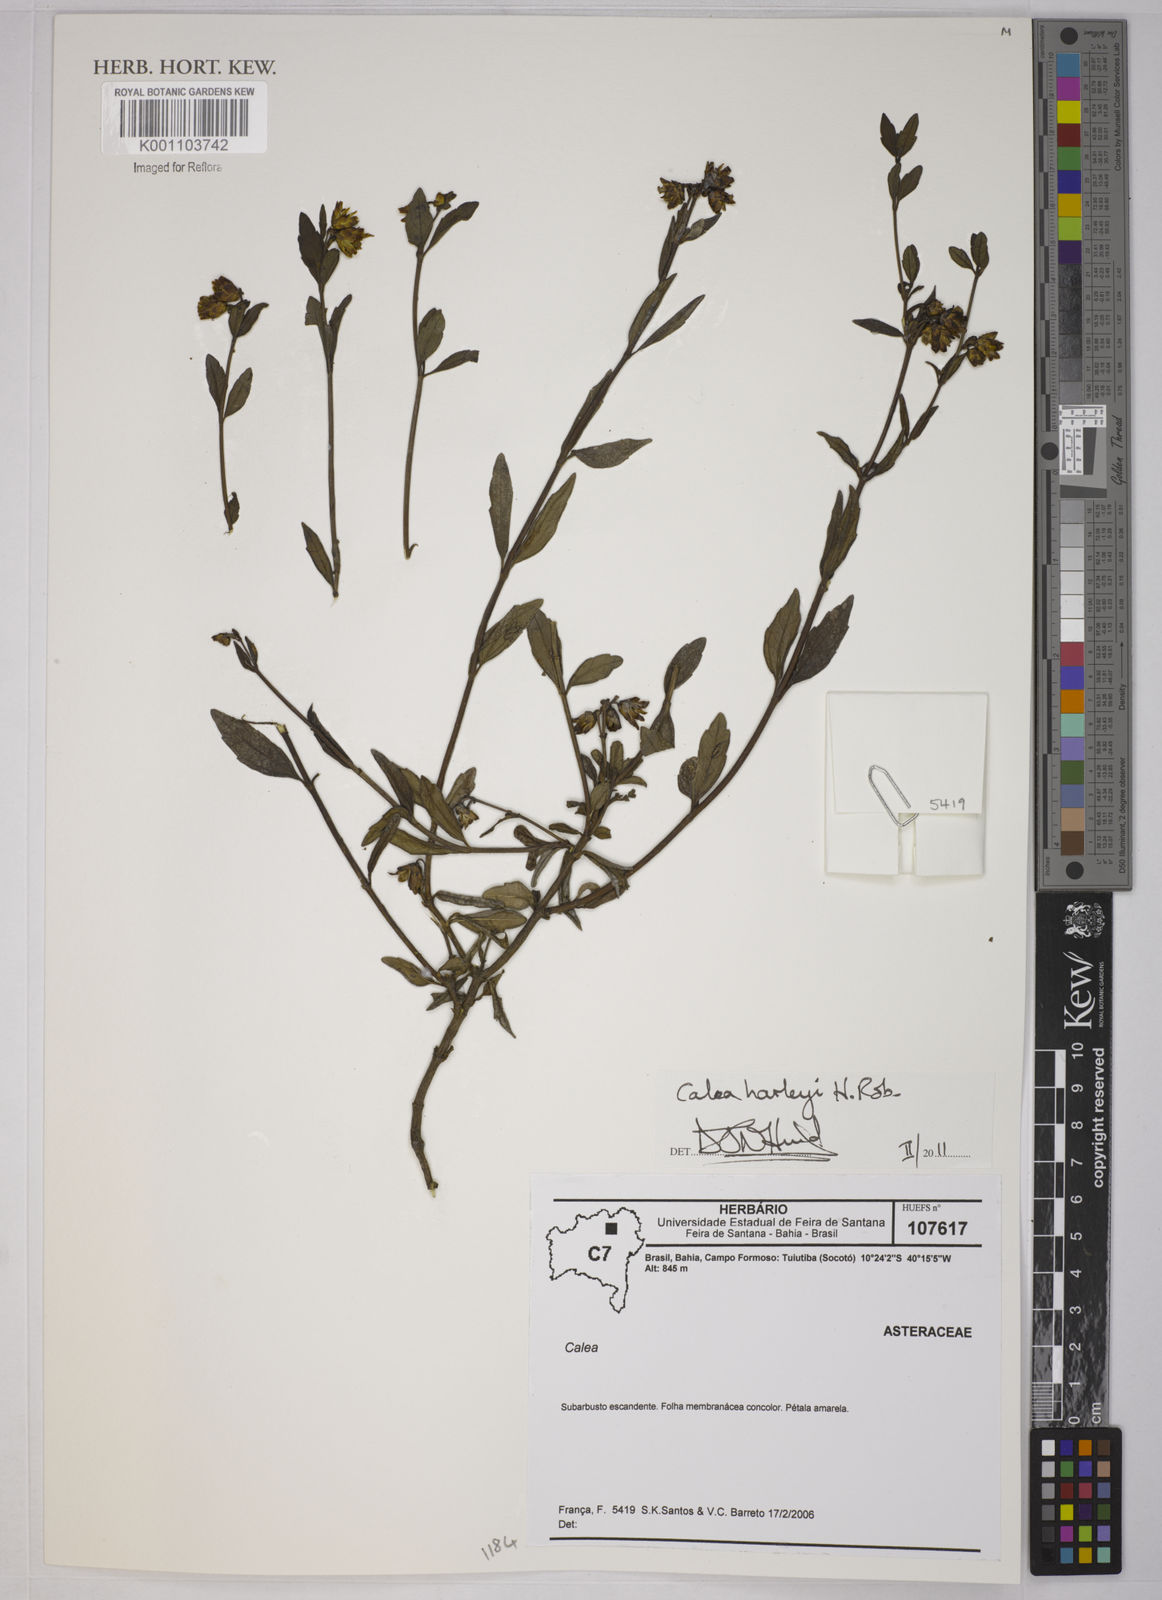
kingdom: Plantae
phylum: Tracheophyta
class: Magnoliopsida
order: Asterales
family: Asteraceae
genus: Calea
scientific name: Calea harleyi
